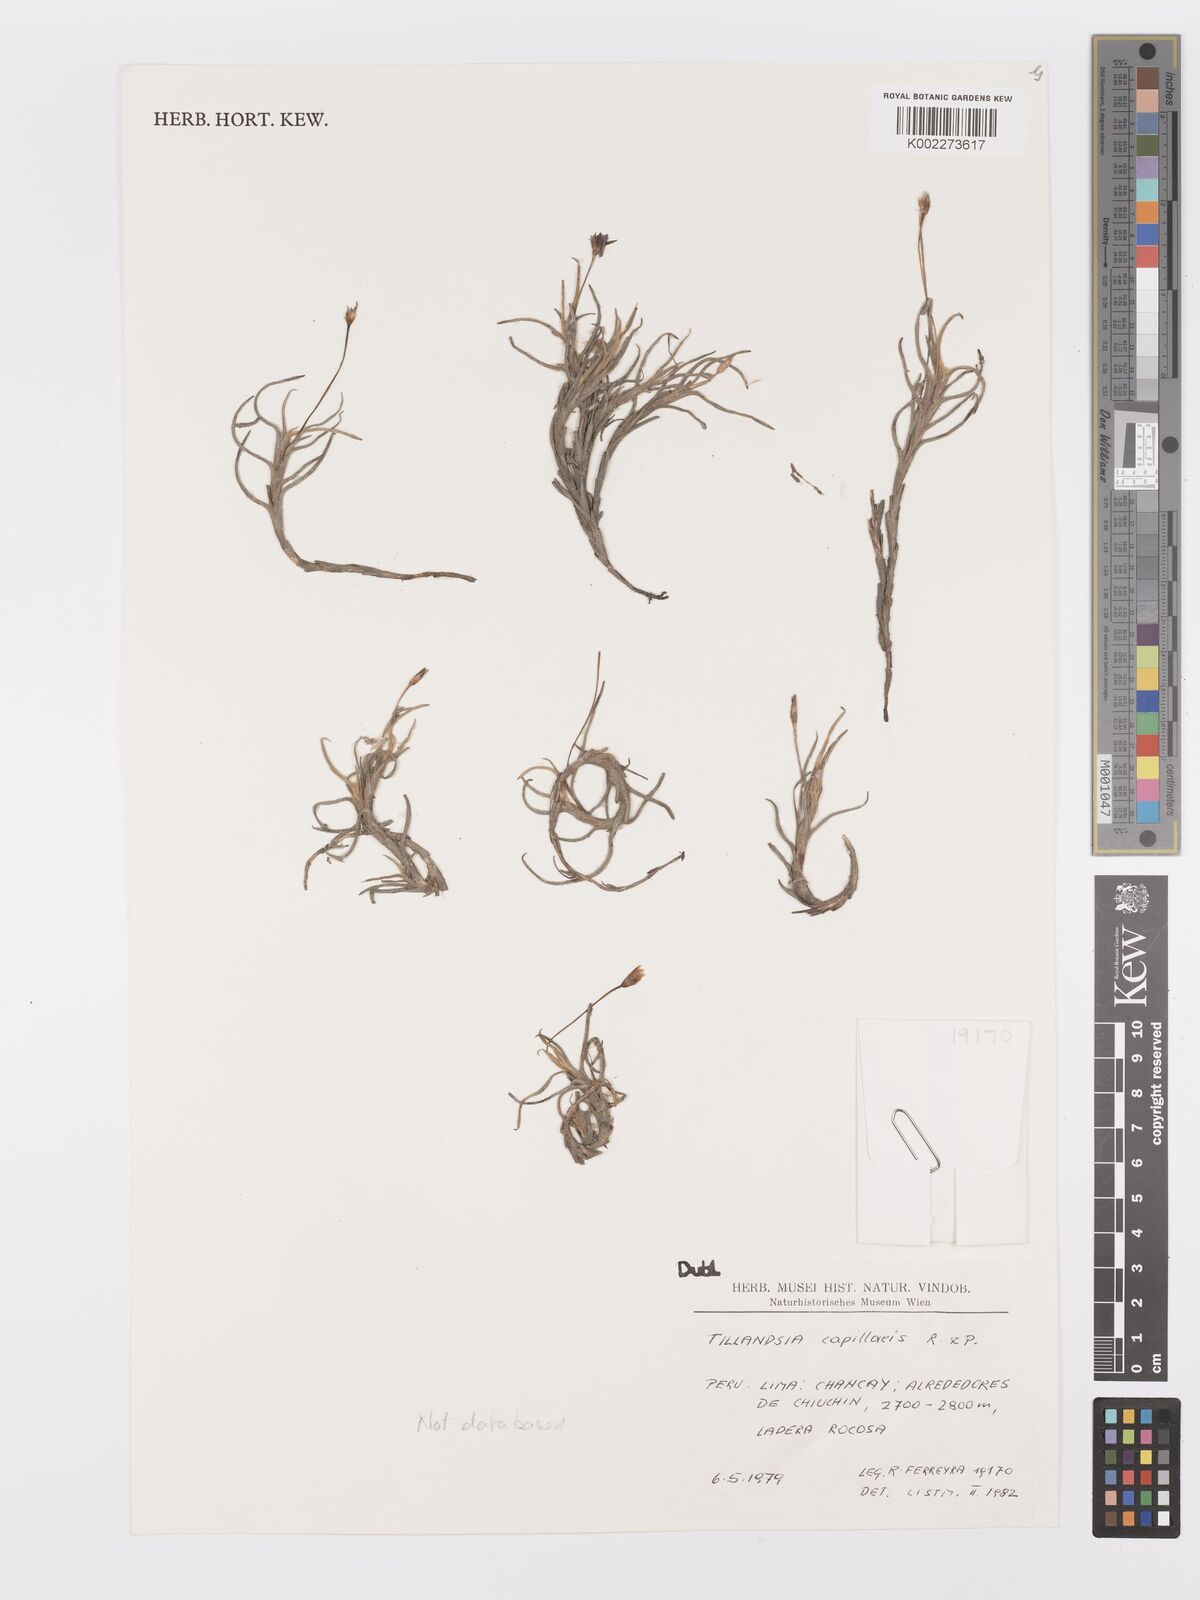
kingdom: Plantae
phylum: Tracheophyta
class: Liliopsida
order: Poales
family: Bromeliaceae
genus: Tillandsia
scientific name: Tillandsia capillaris
